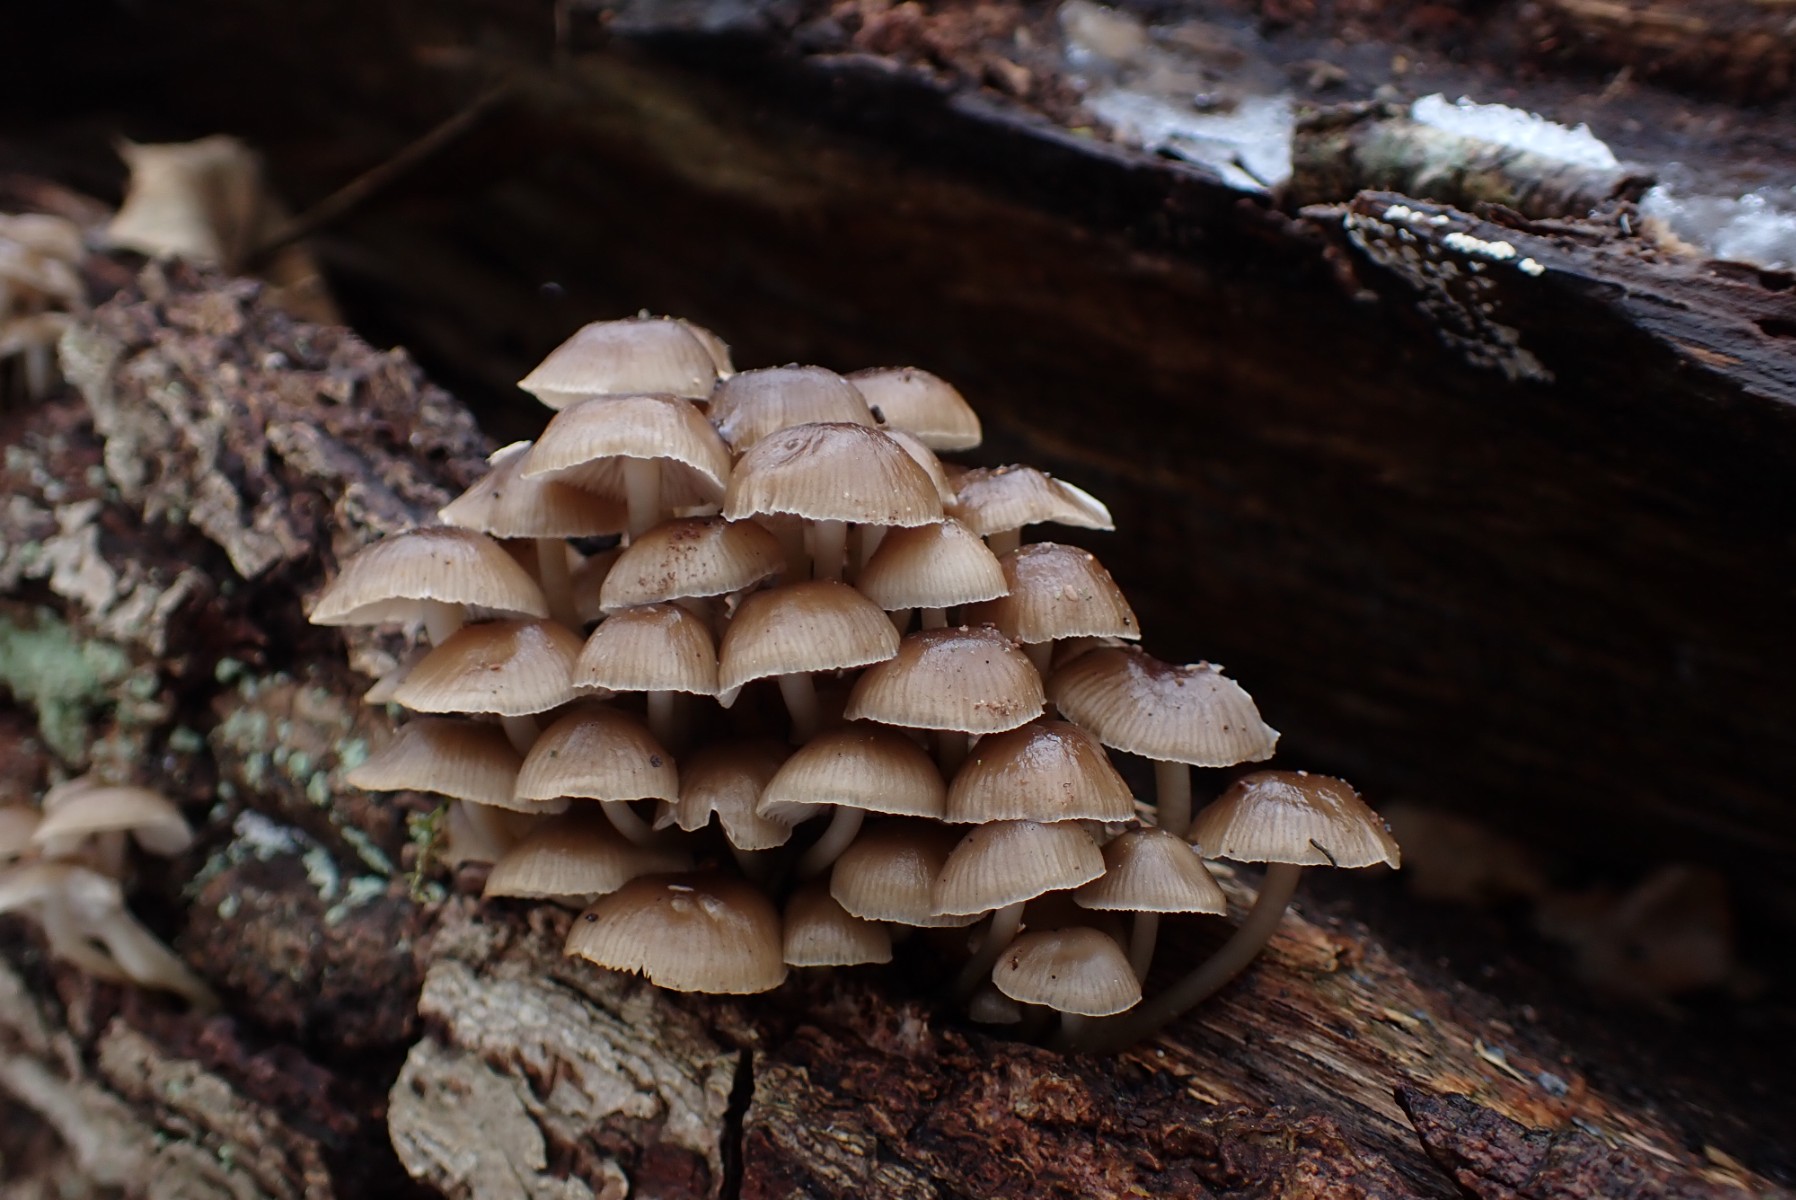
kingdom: Fungi
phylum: Basidiomycota
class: Agaricomycetes
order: Agaricales
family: Mycenaceae
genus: Mycena
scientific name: Mycena tintinnabulum
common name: vinter-huesvamp
